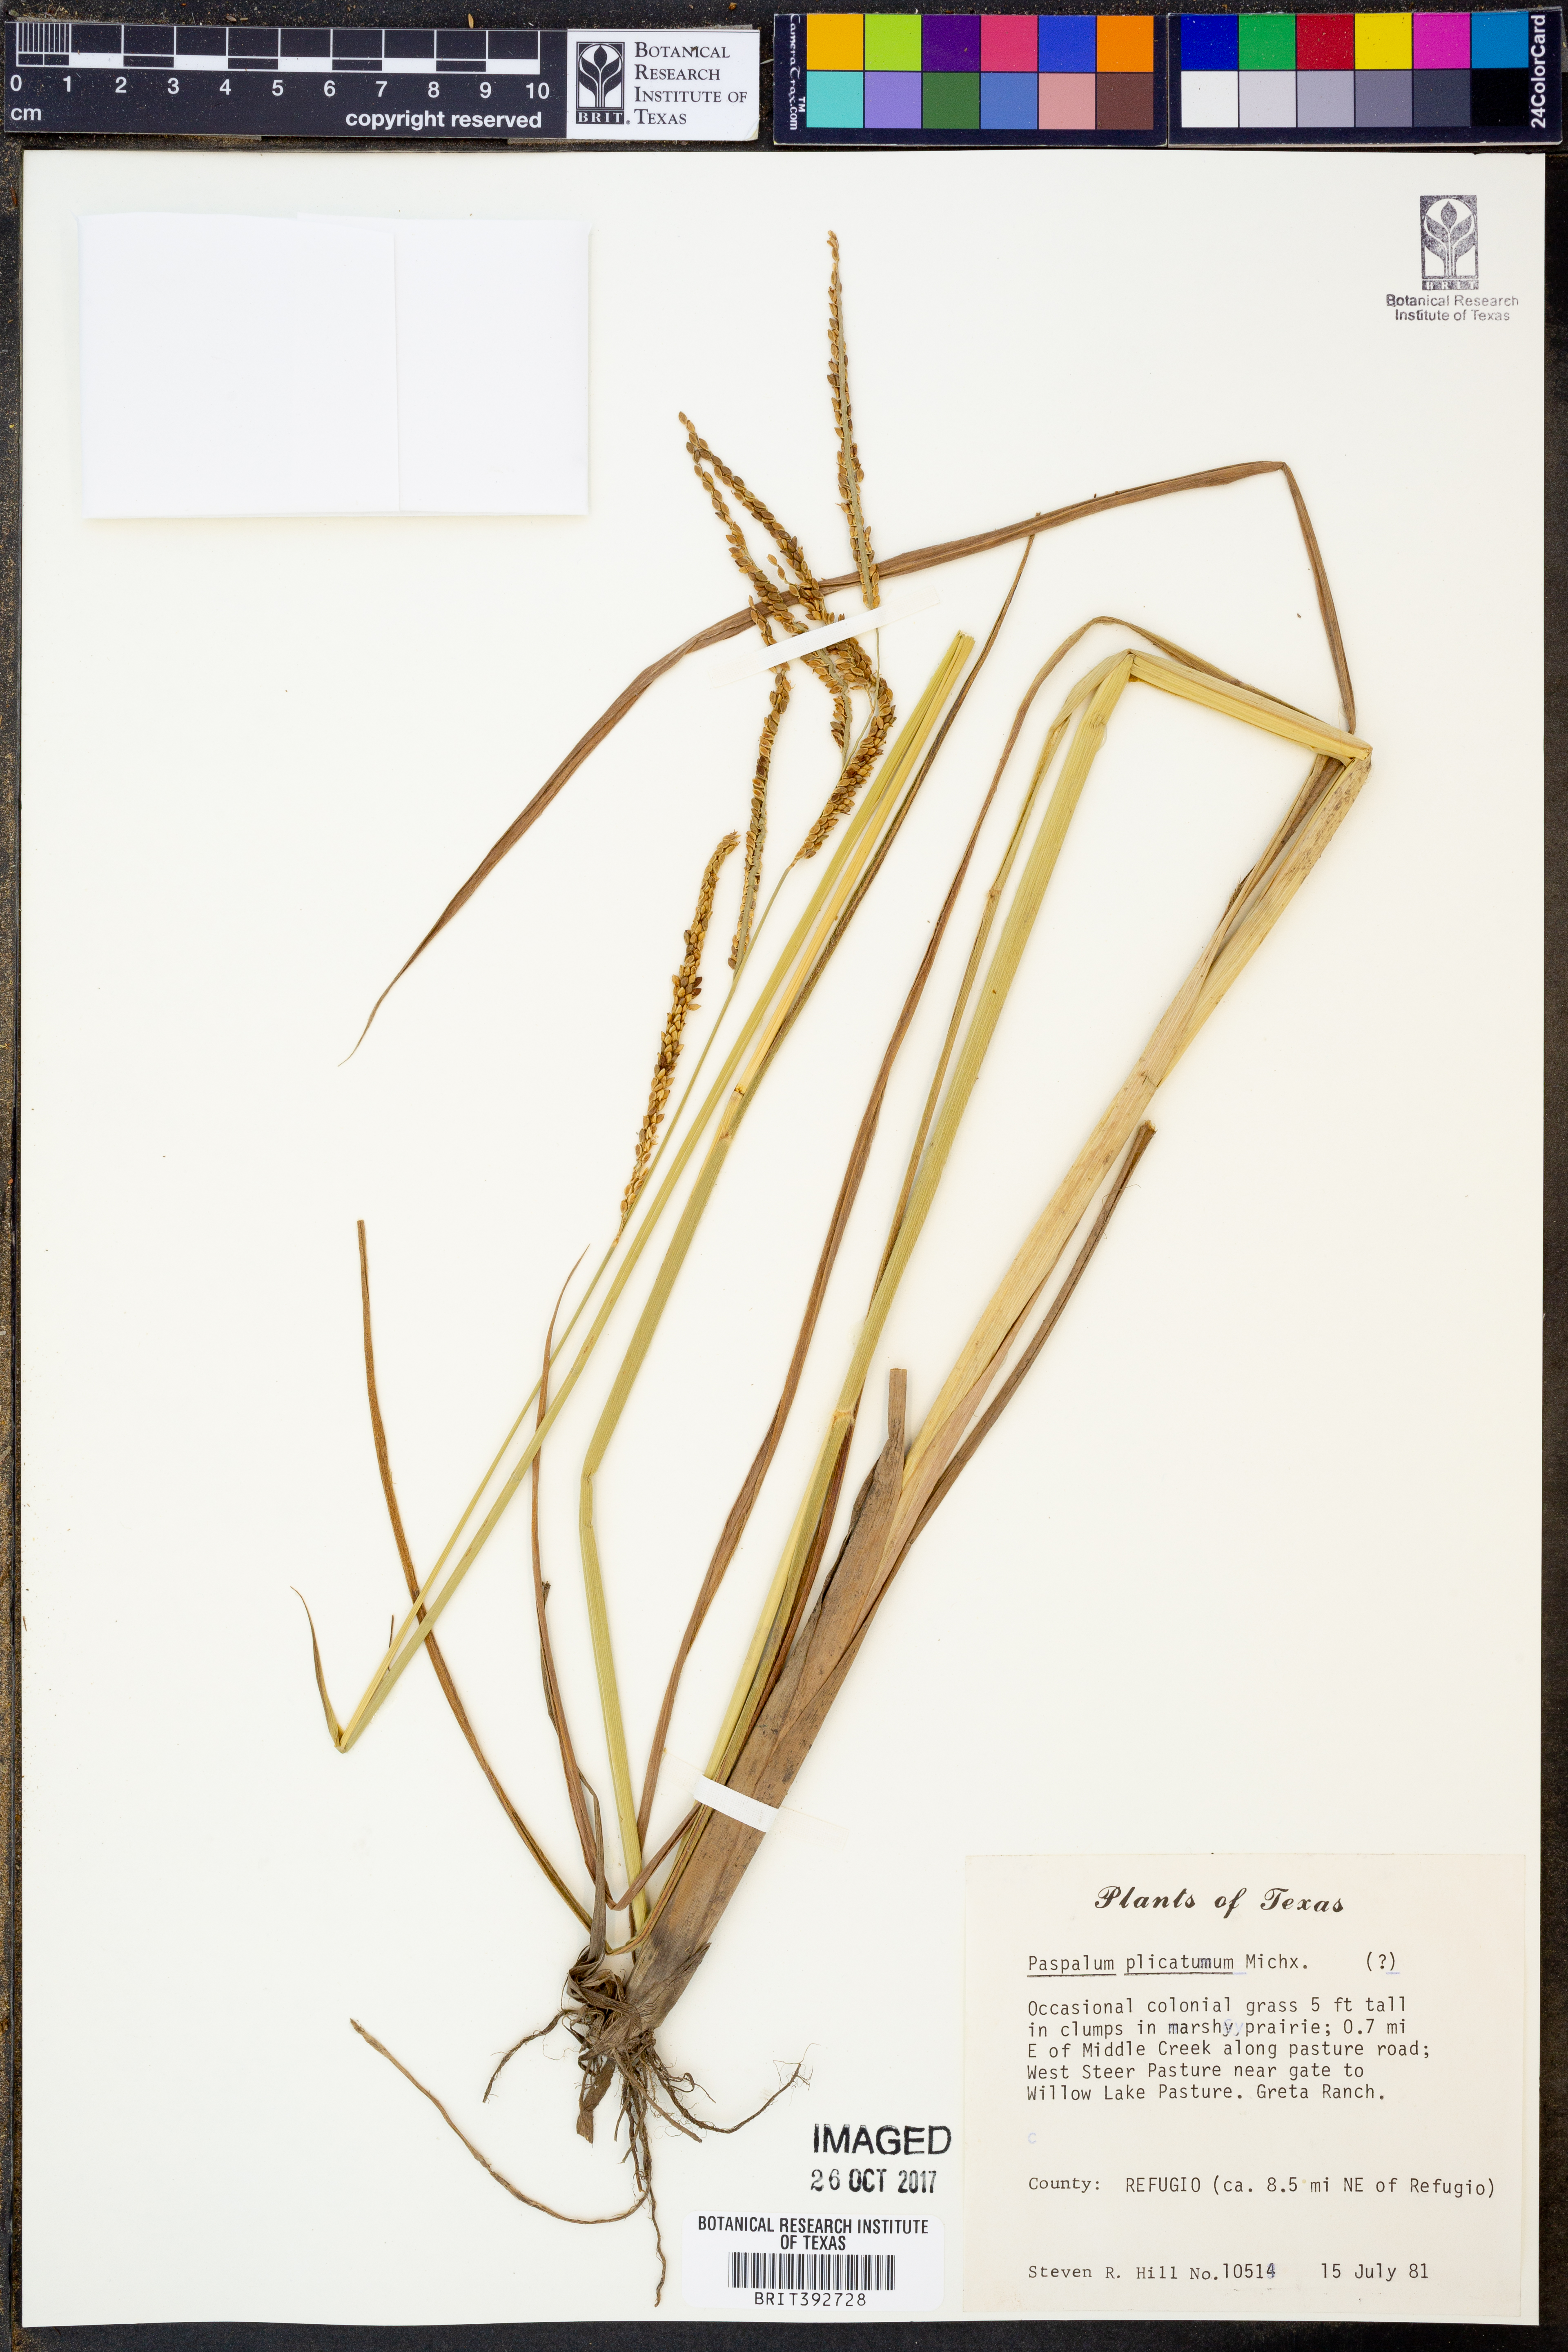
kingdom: Plantae
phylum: Tracheophyta
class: Liliopsida
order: Poales
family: Poaceae
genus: Paspalum
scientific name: Paspalum plicatulum
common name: Top paspalum
